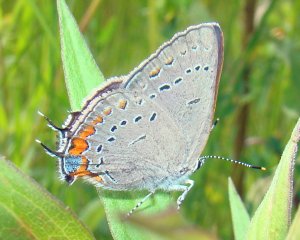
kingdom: Animalia
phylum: Arthropoda
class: Insecta
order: Lepidoptera
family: Lycaenidae
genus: Strymon
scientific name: Strymon acadica
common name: Acadian Hairstreak
